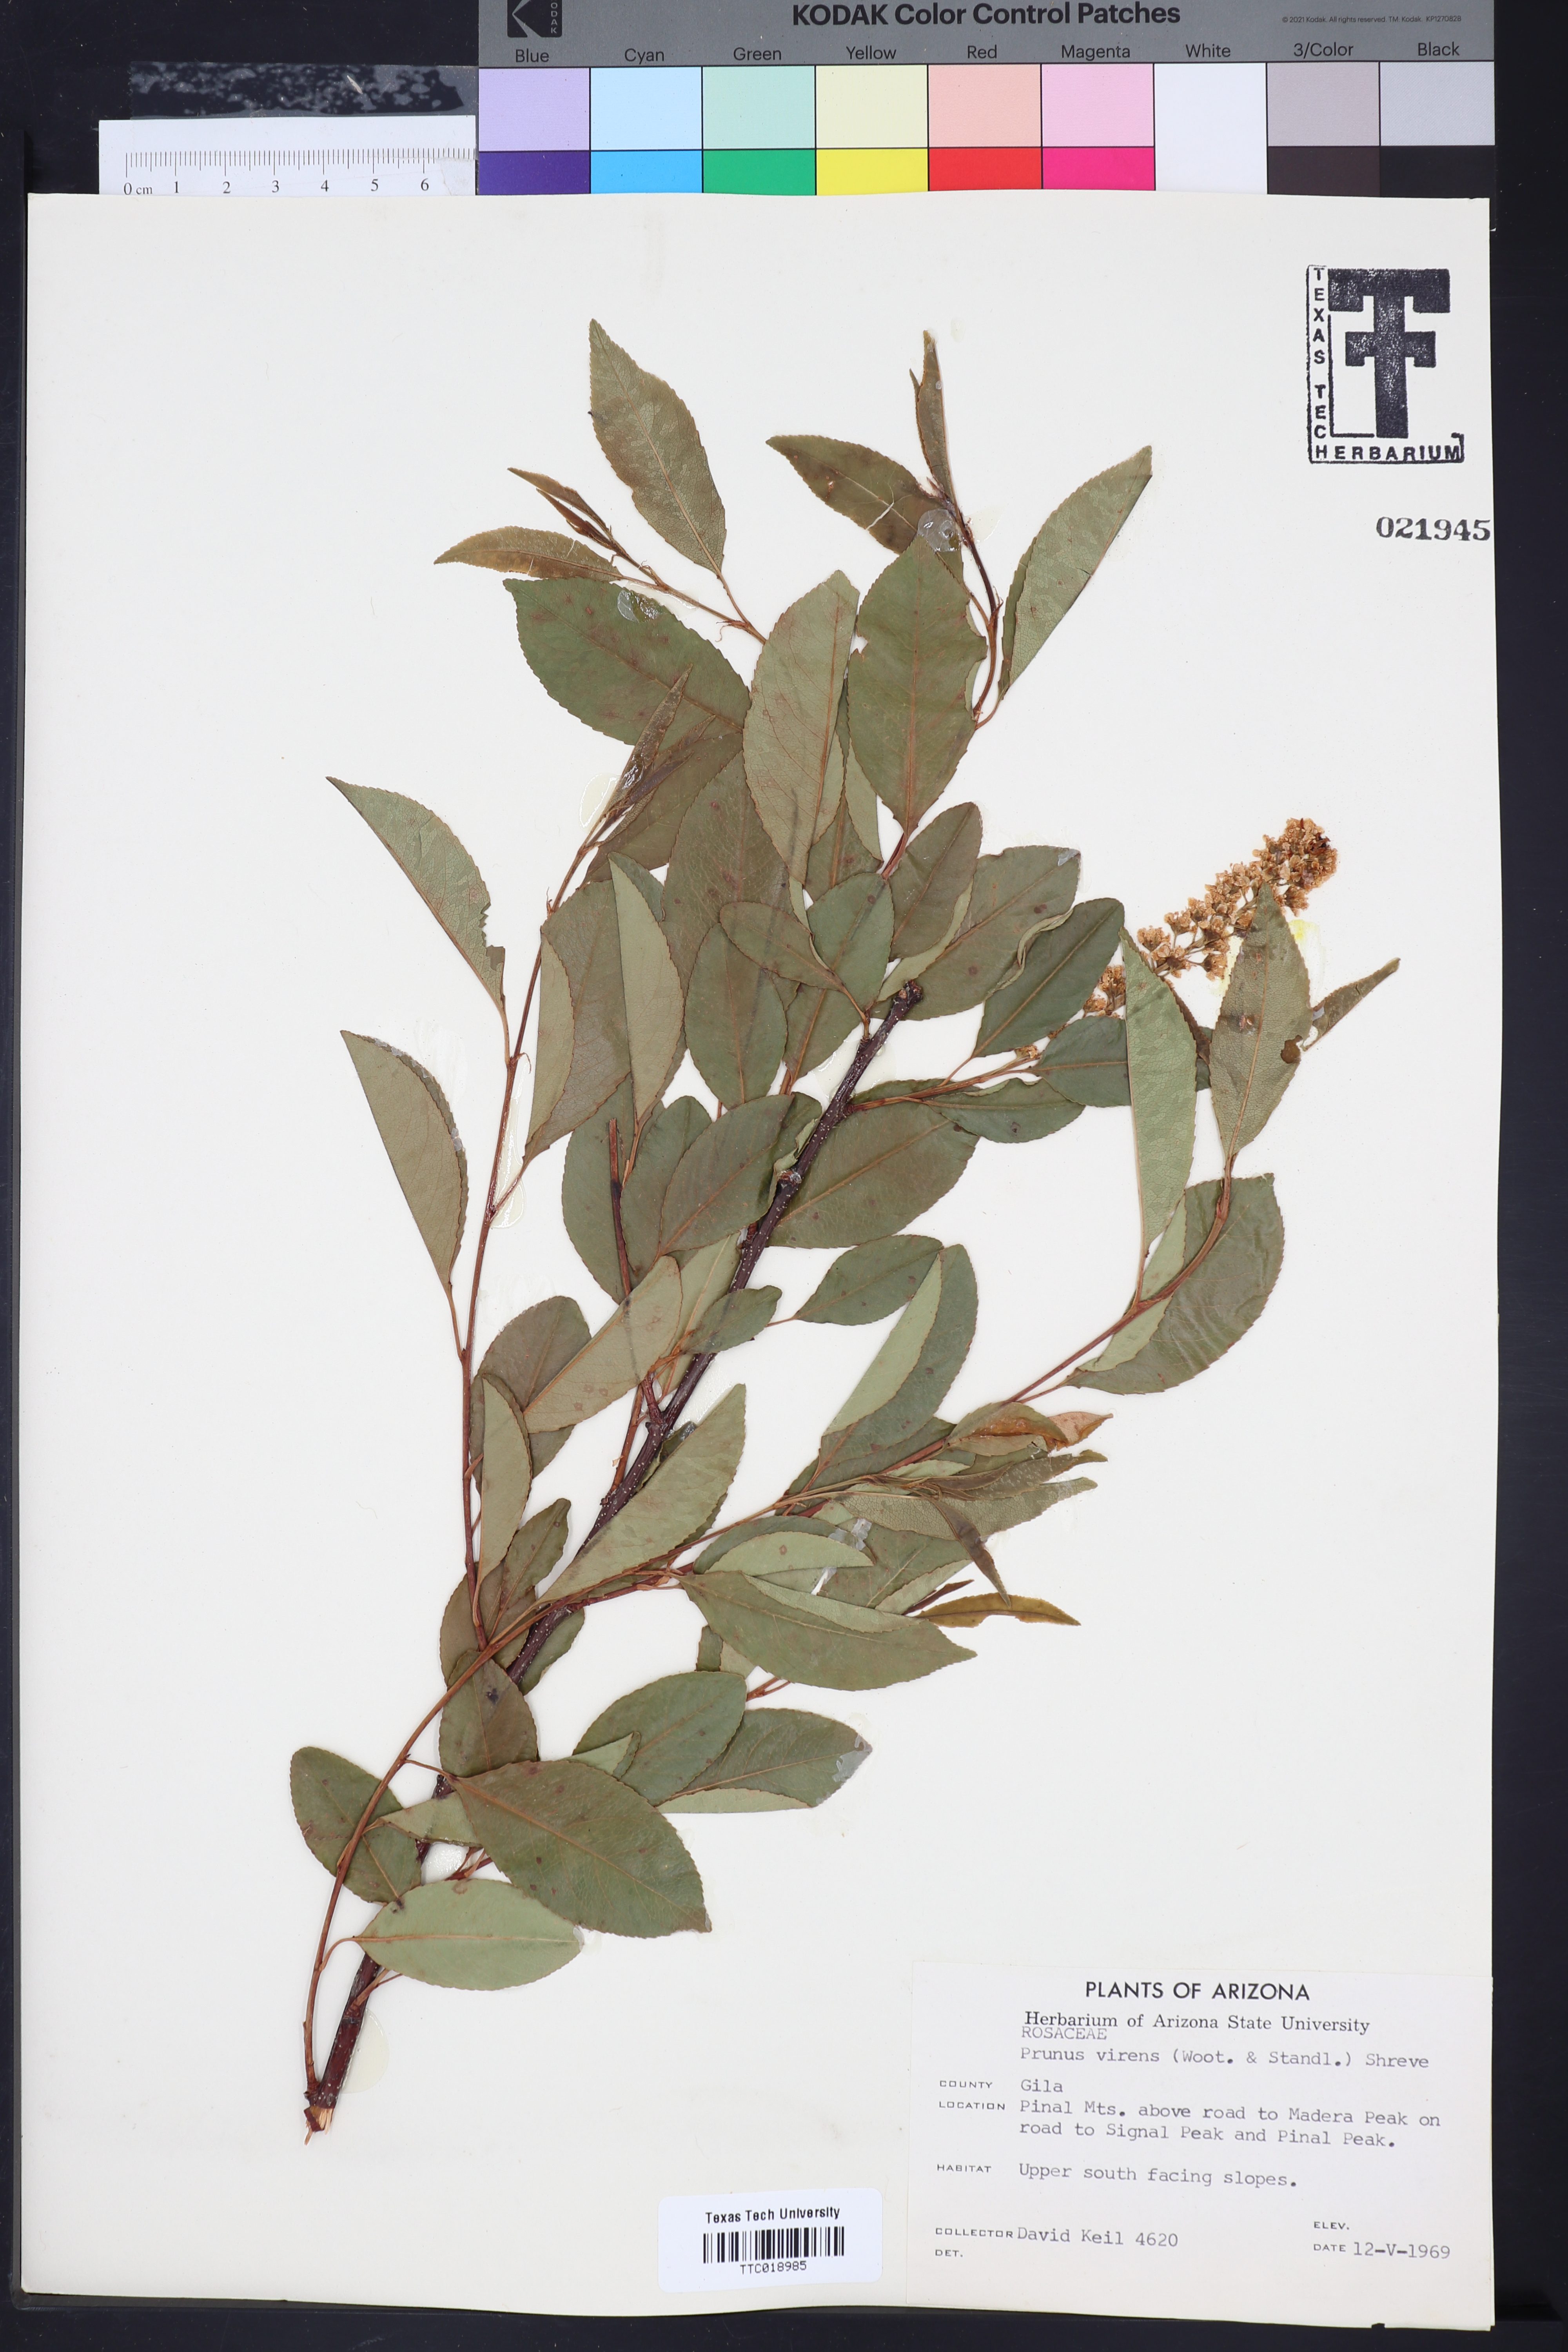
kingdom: Plantae
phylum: Tracheophyta
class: Magnoliopsida
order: Rosales
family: Rosaceae
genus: Prunus
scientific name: Prunus serotina
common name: Black cherry
